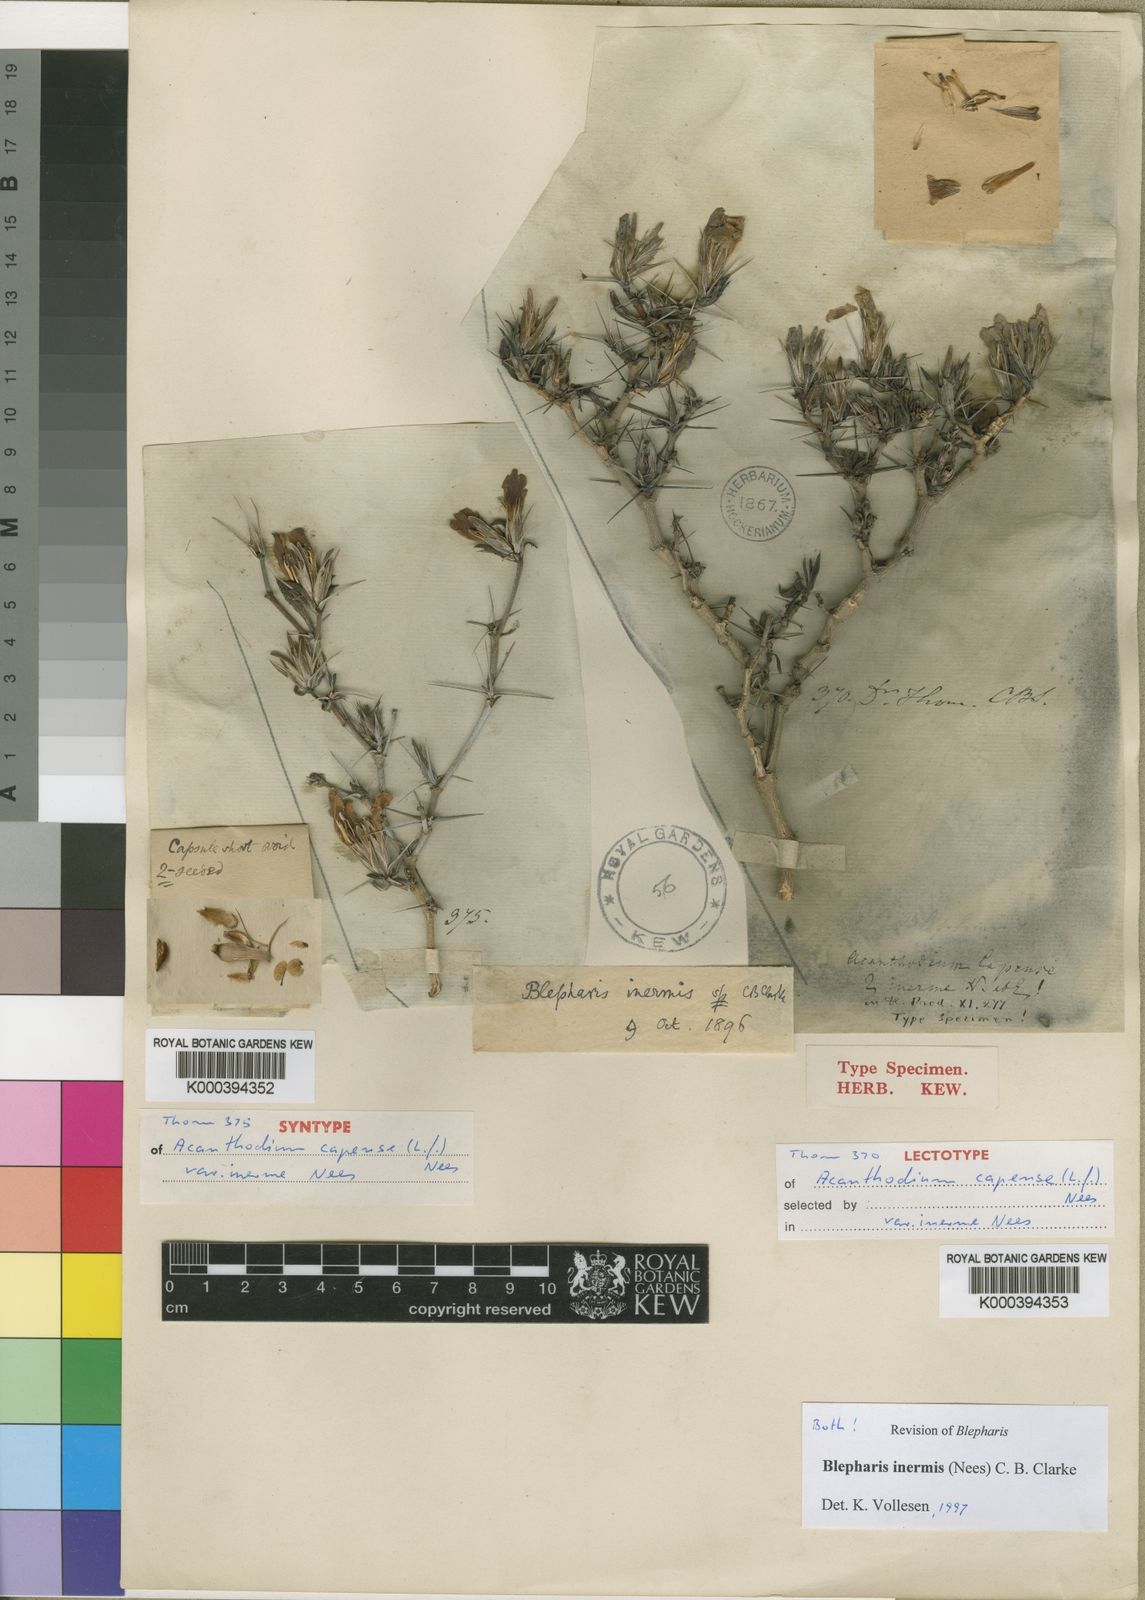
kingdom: Plantae
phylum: Tracheophyta
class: Magnoliopsida
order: Lamiales
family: Acanthaceae
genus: Blepharis
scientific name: Blepharis inermis
